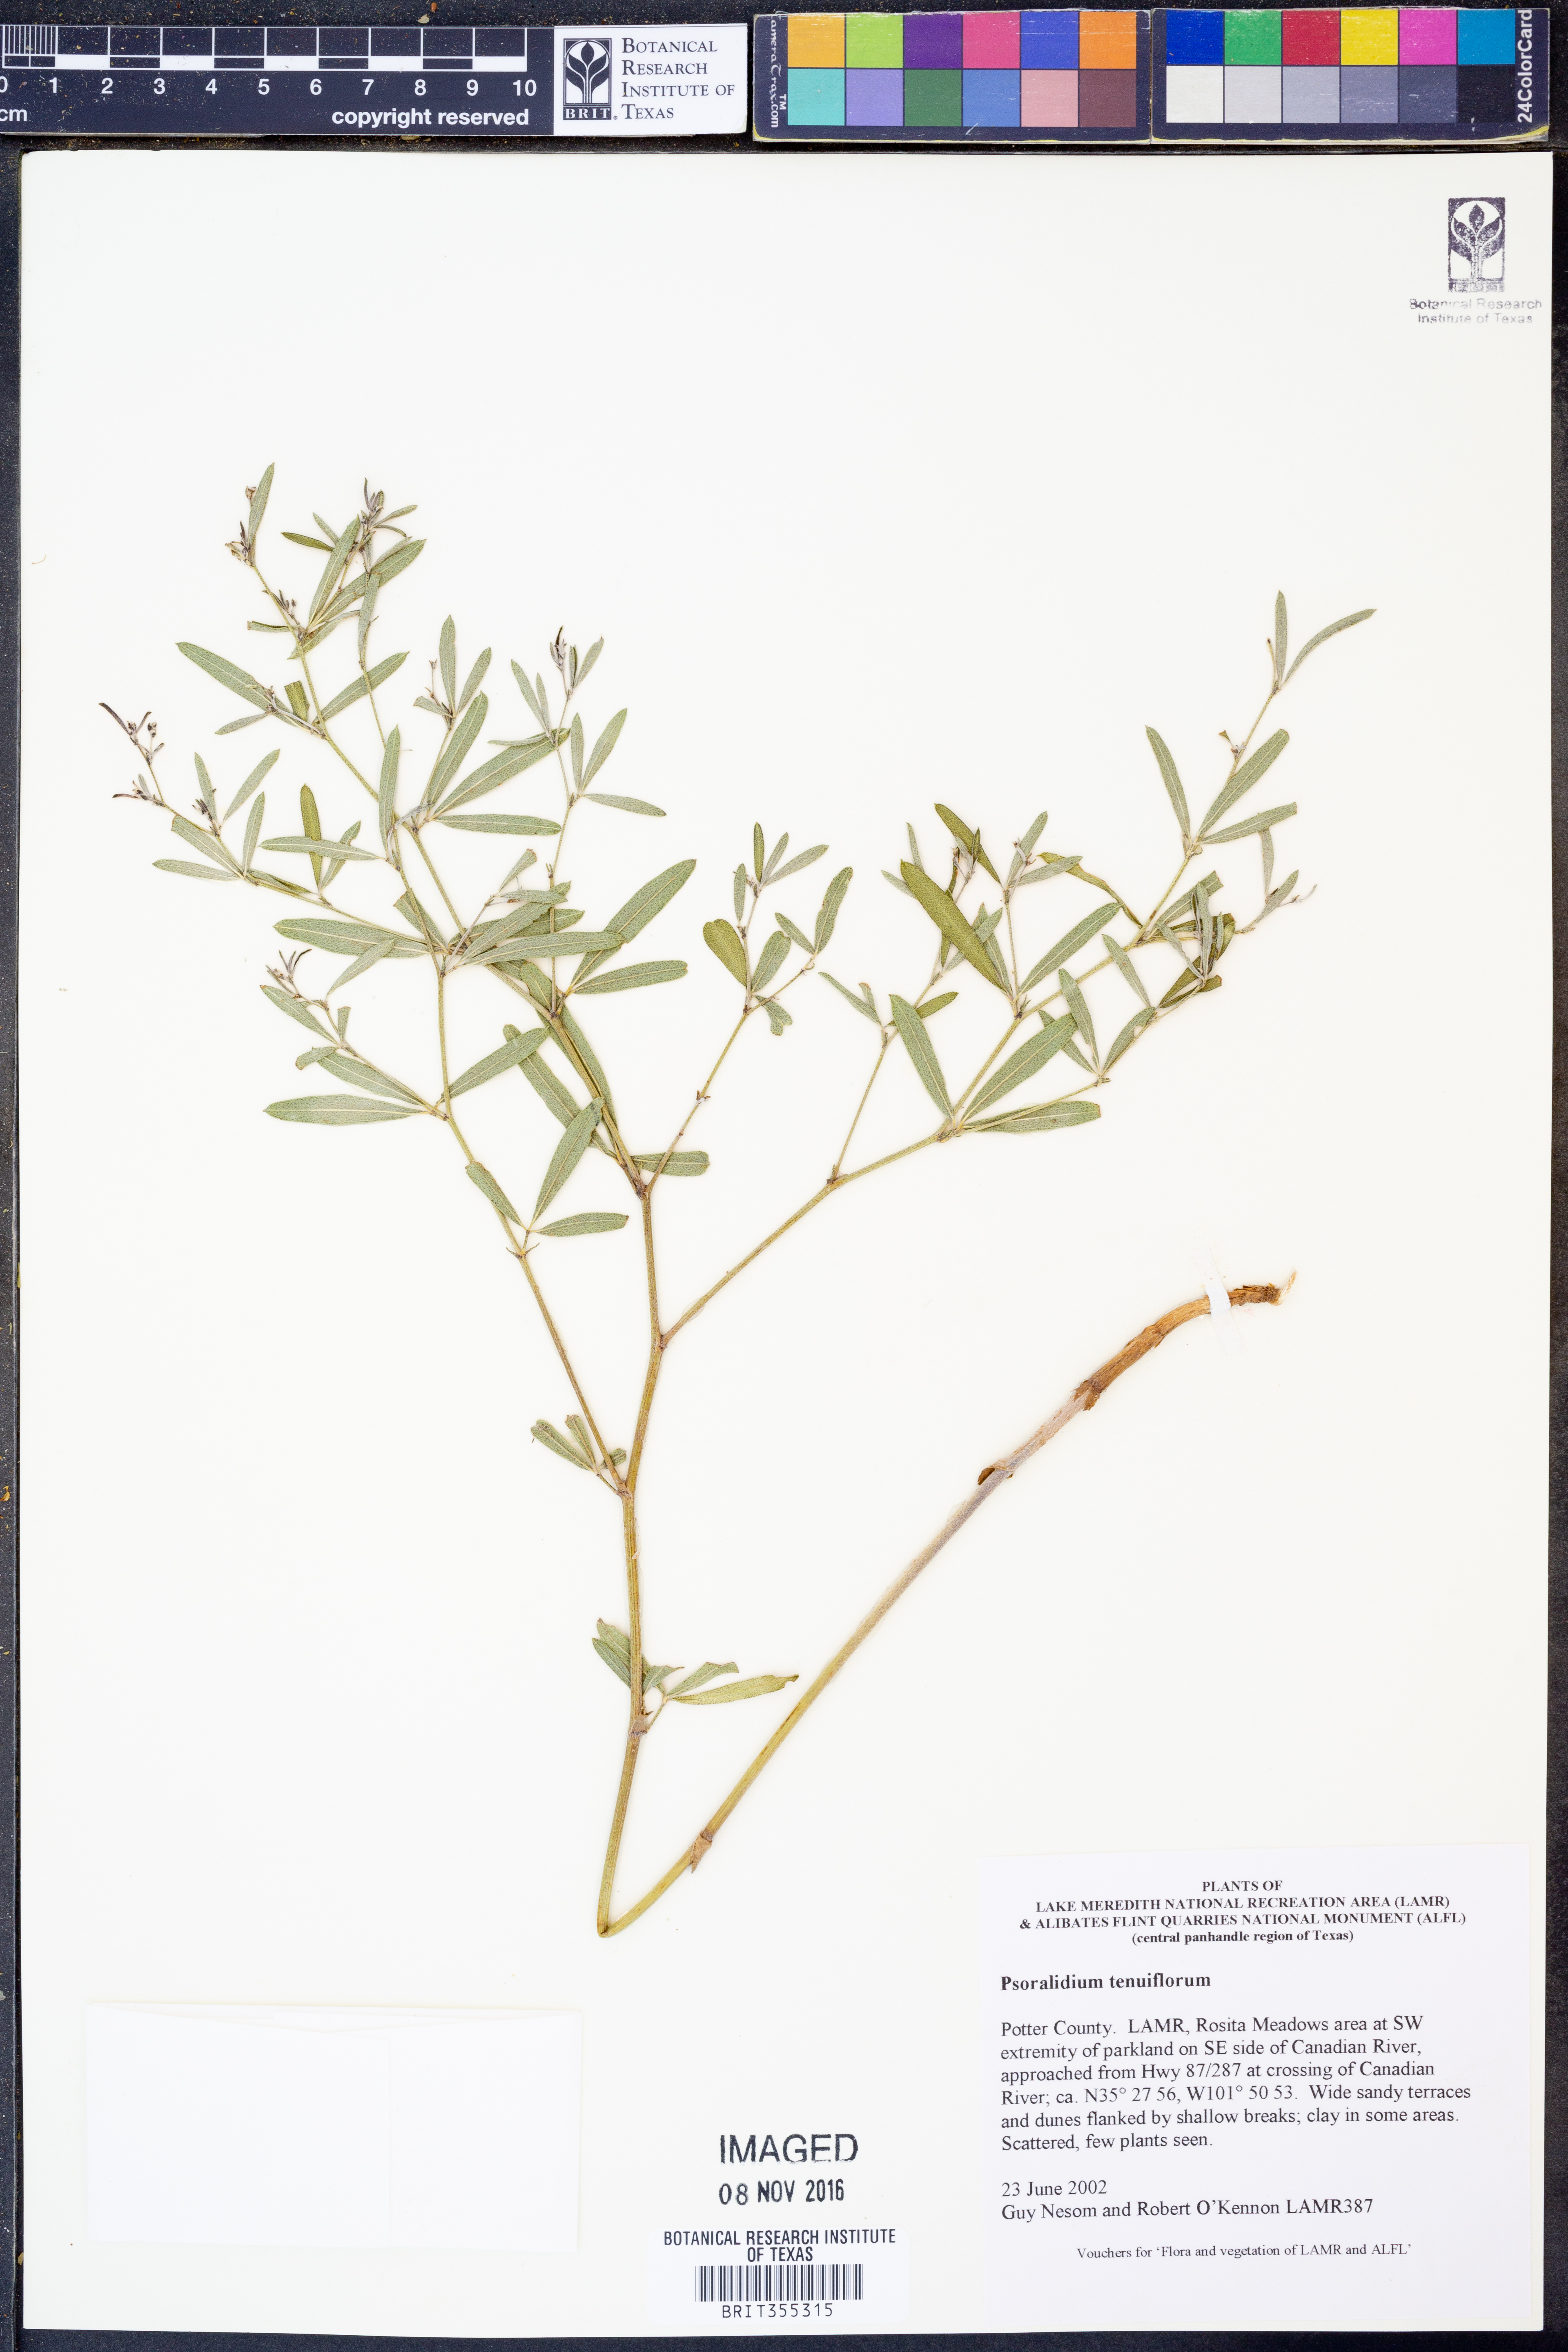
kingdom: Plantae
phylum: Tracheophyta
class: Magnoliopsida
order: Fabales
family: Fabaceae
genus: Pediomelum
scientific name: Pediomelum tenuiflorum
